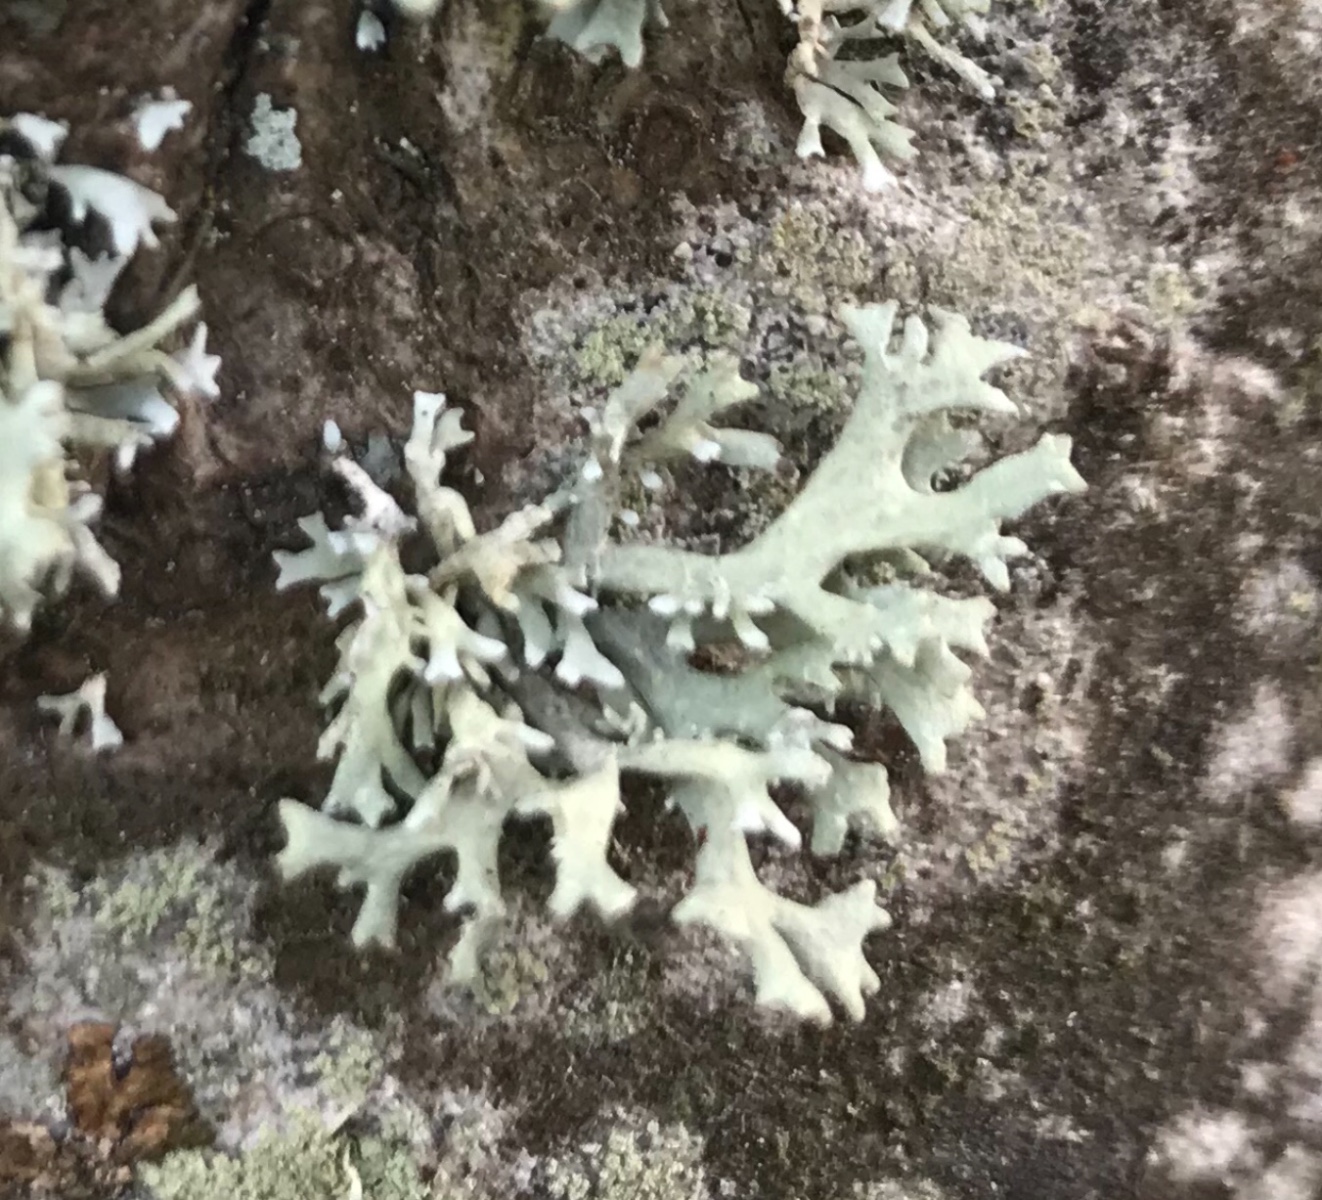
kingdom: Fungi
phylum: Ascomycota
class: Lecanoromycetes
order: Lecanorales
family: Parmeliaceae
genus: Evernia
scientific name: Evernia prunastri
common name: almindelig slåenlav
